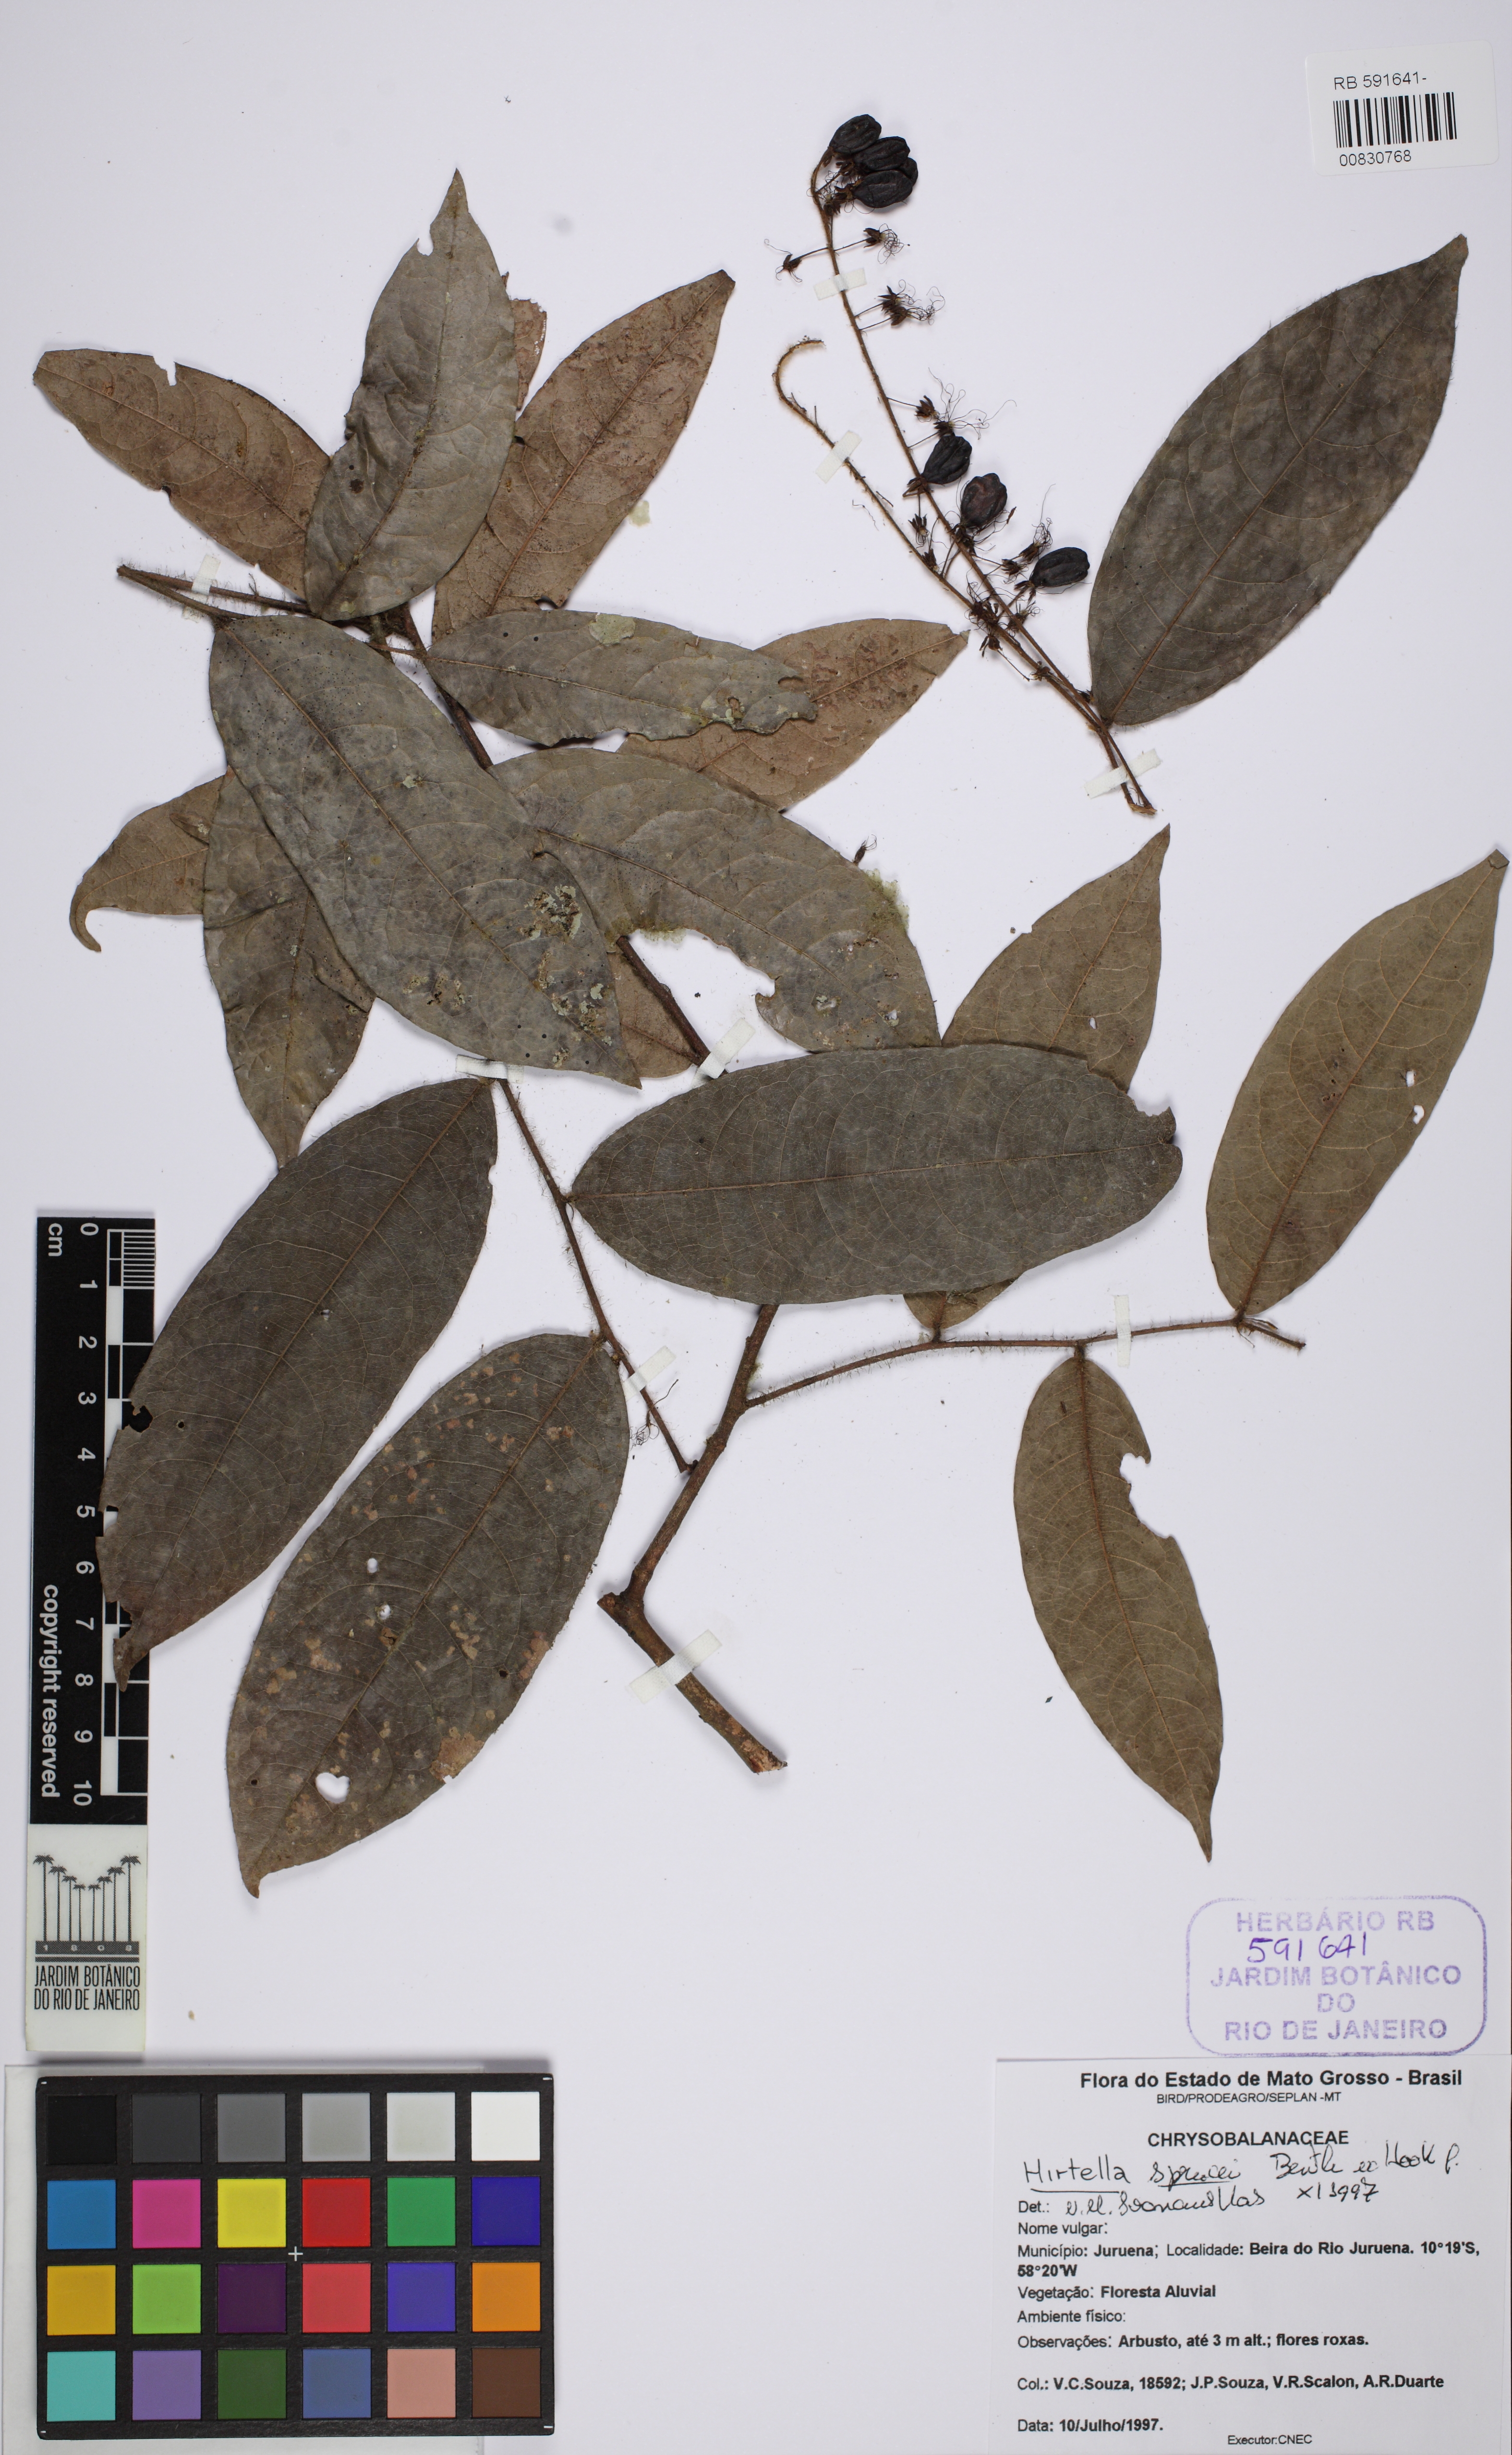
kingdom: Plantae
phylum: Tracheophyta
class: Magnoliopsida
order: Malpighiales
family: Chrysobalanaceae
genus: Hirtella
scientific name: Hirtella sprucei
